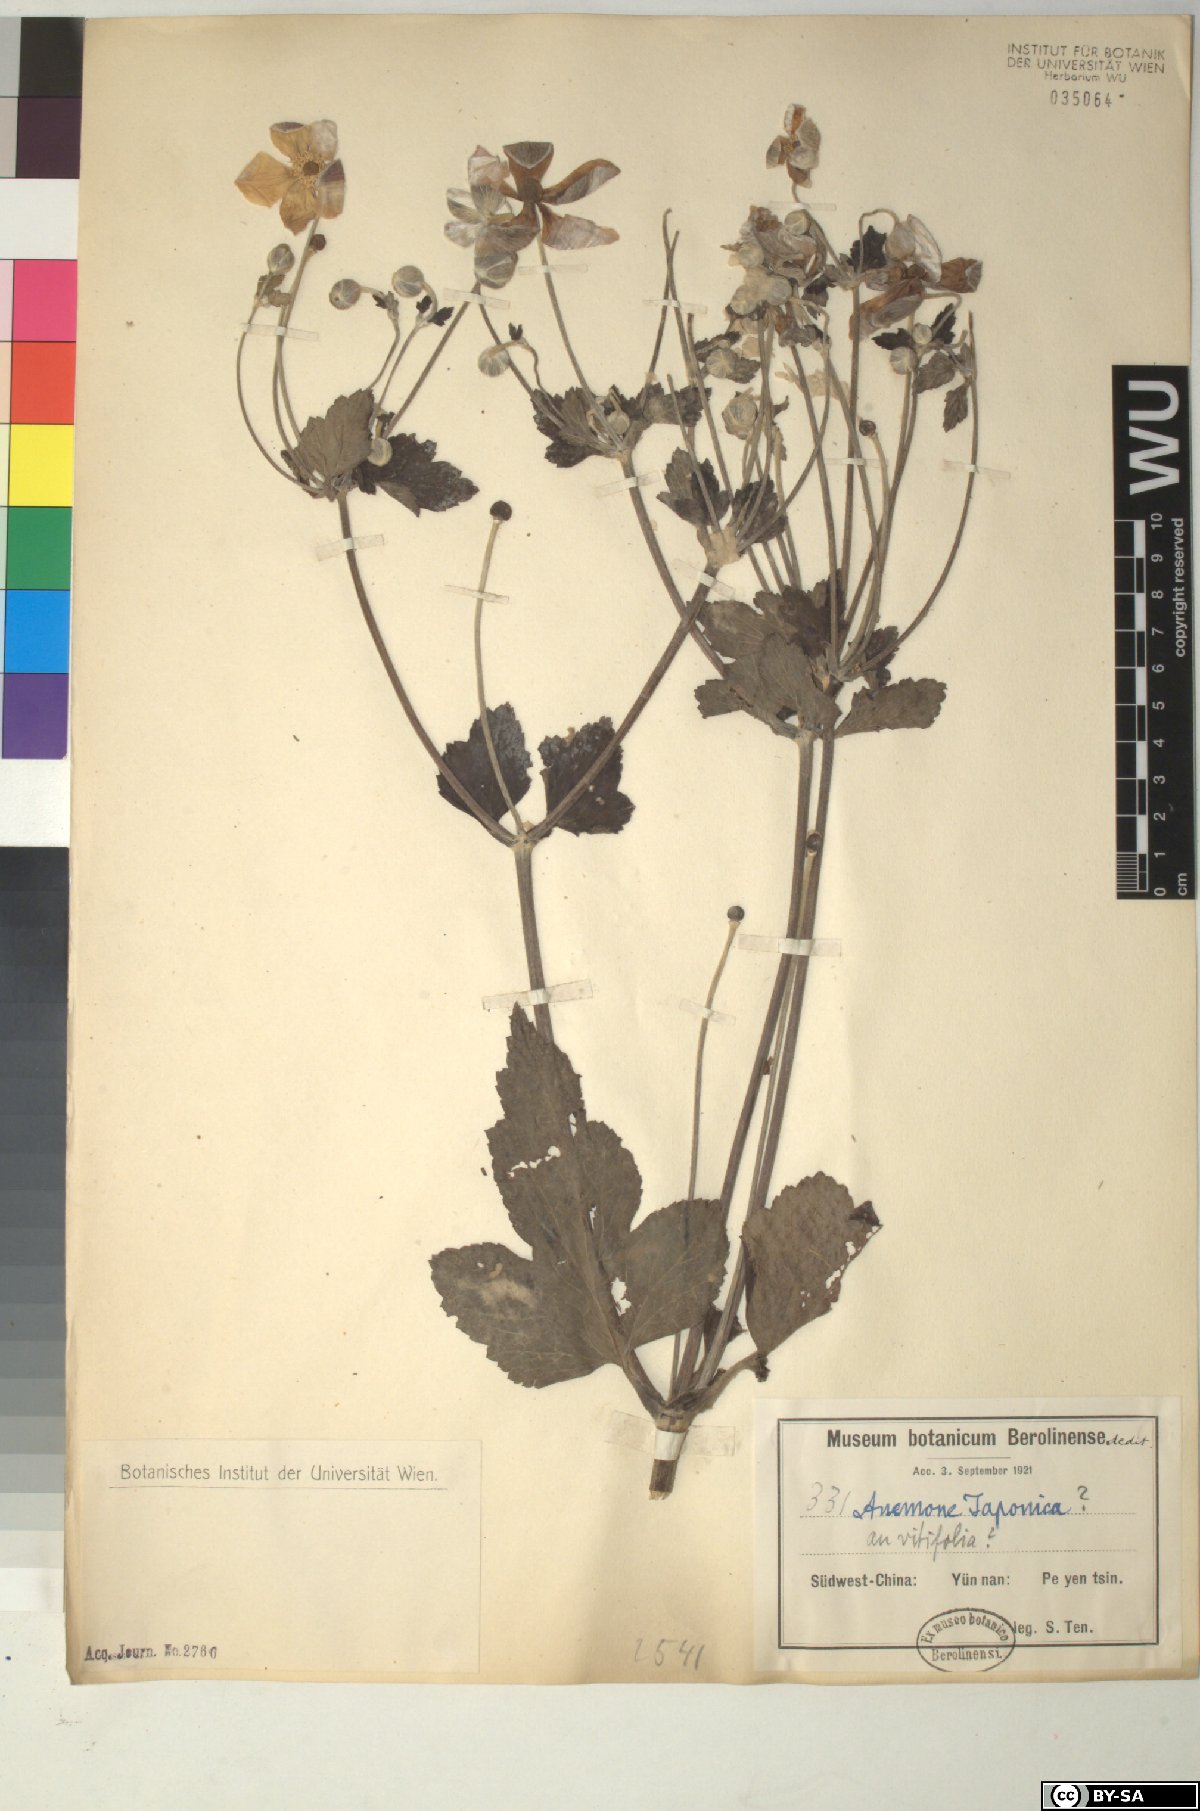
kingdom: Plantae
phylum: Tracheophyta
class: Magnoliopsida
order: Ranunculales
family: Ranunculaceae
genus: Eriocapitella
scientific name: Eriocapitella japonica
